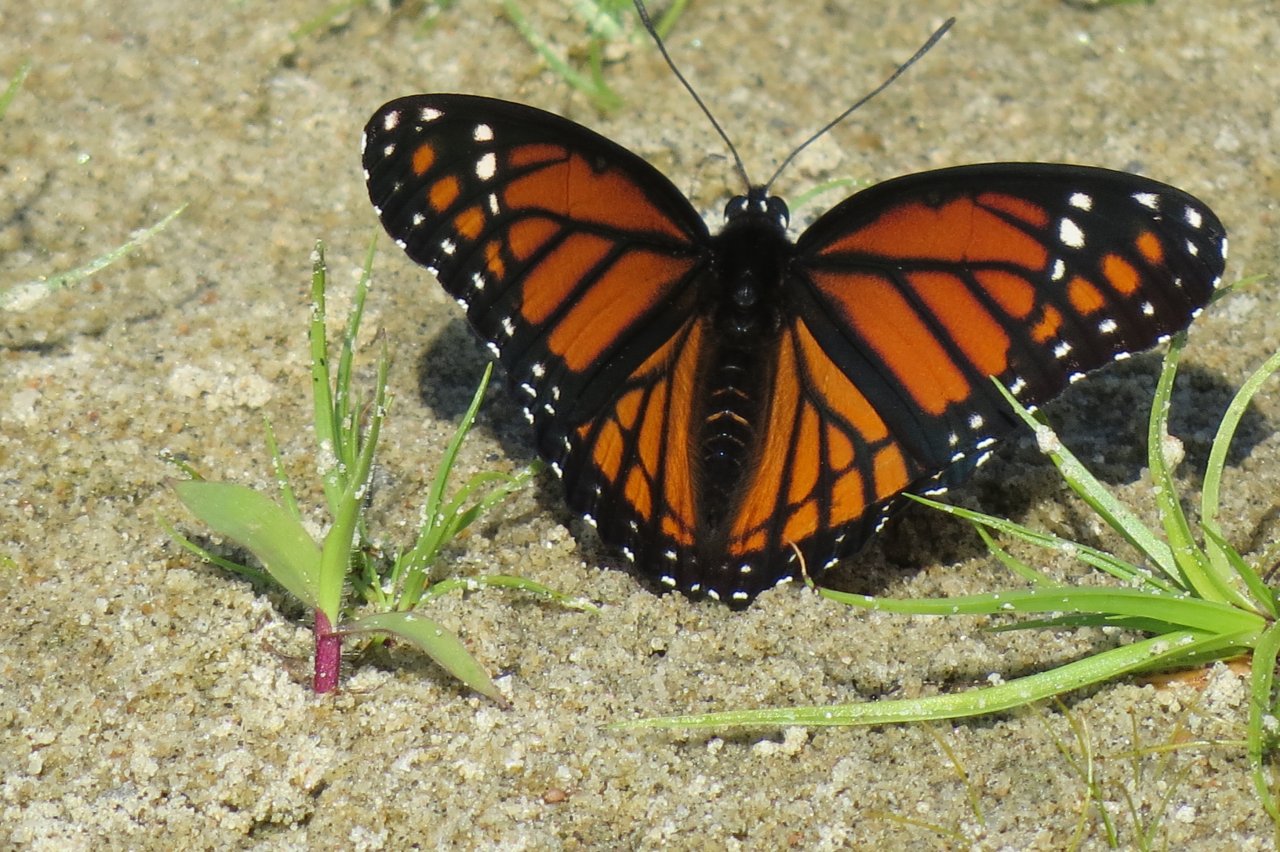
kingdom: Animalia
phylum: Arthropoda
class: Insecta
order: Lepidoptera
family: Nymphalidae
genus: Limenitis
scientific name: Limenitis archippus
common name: Viceroy
